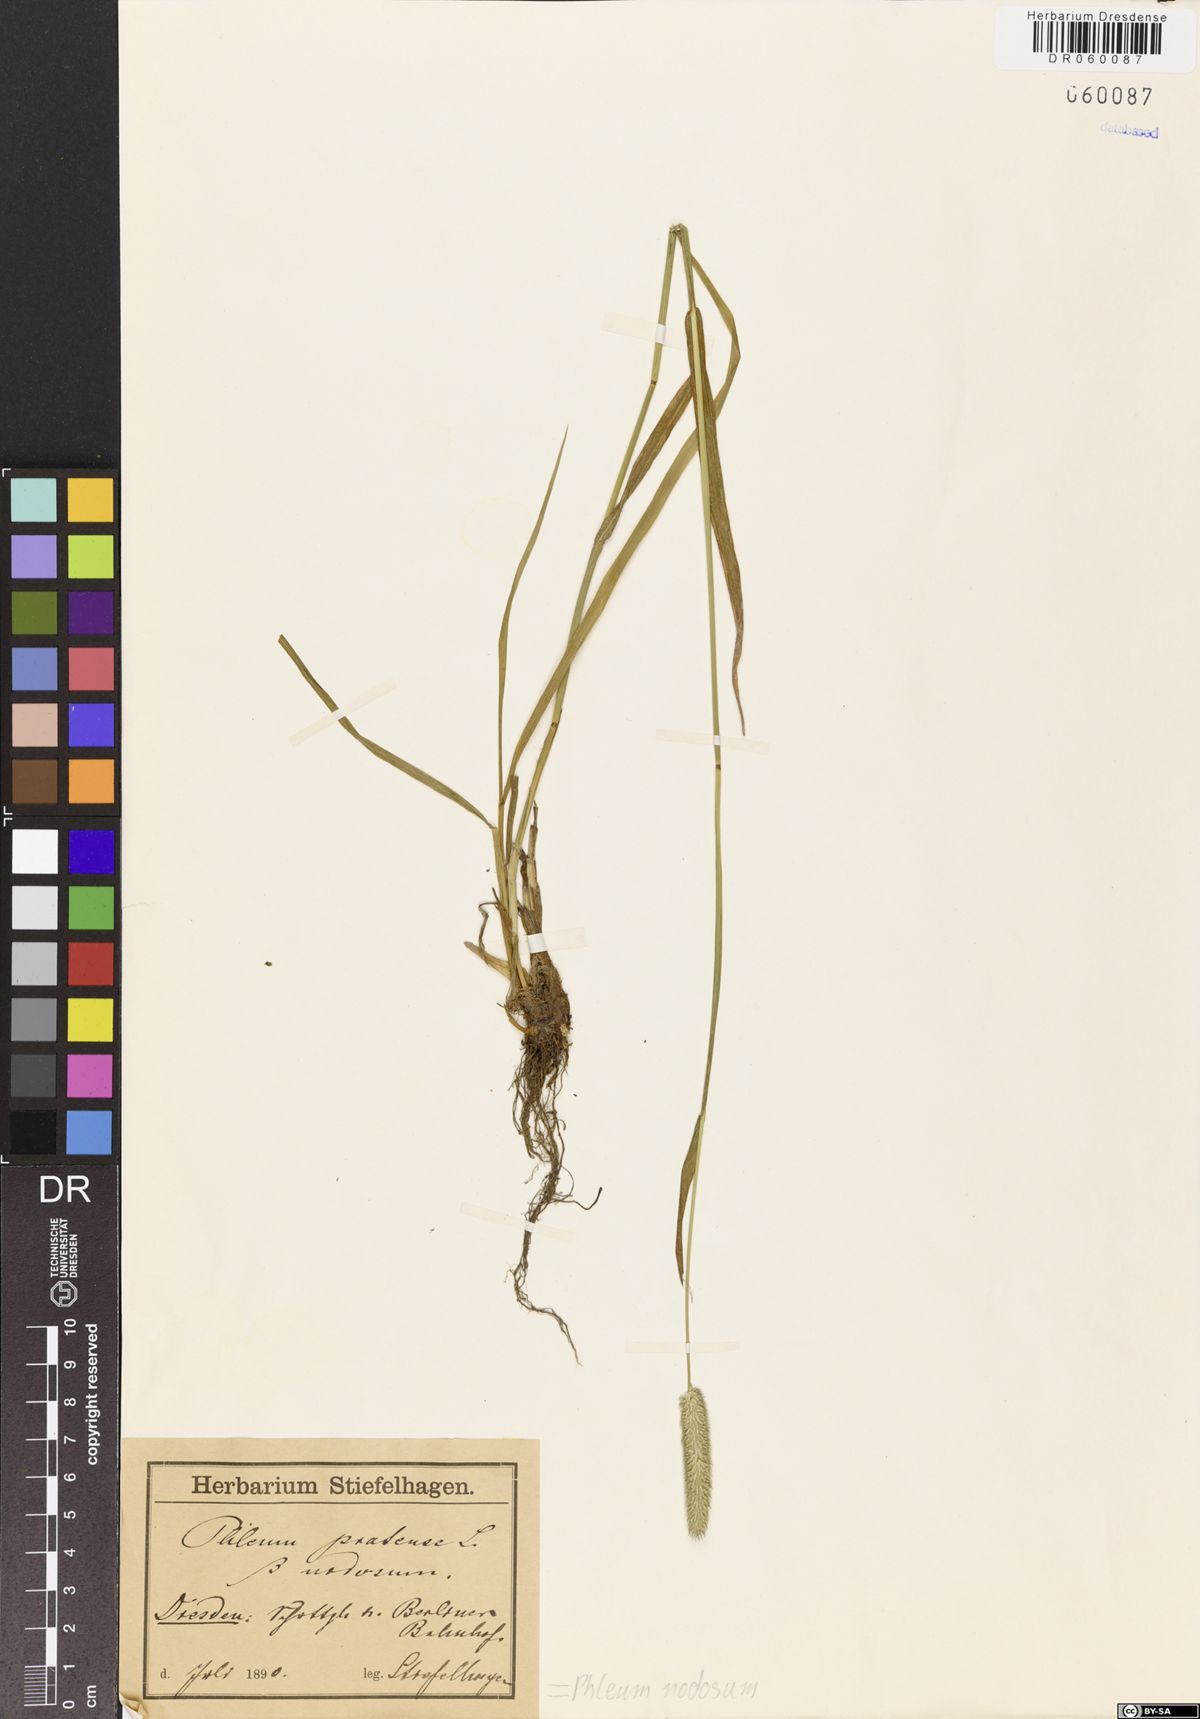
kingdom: Plantae
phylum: Tracheophyta
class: Liliopsida
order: Poales
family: Poaceae
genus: Phleum
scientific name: Phleum pratense
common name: Timothy grass
